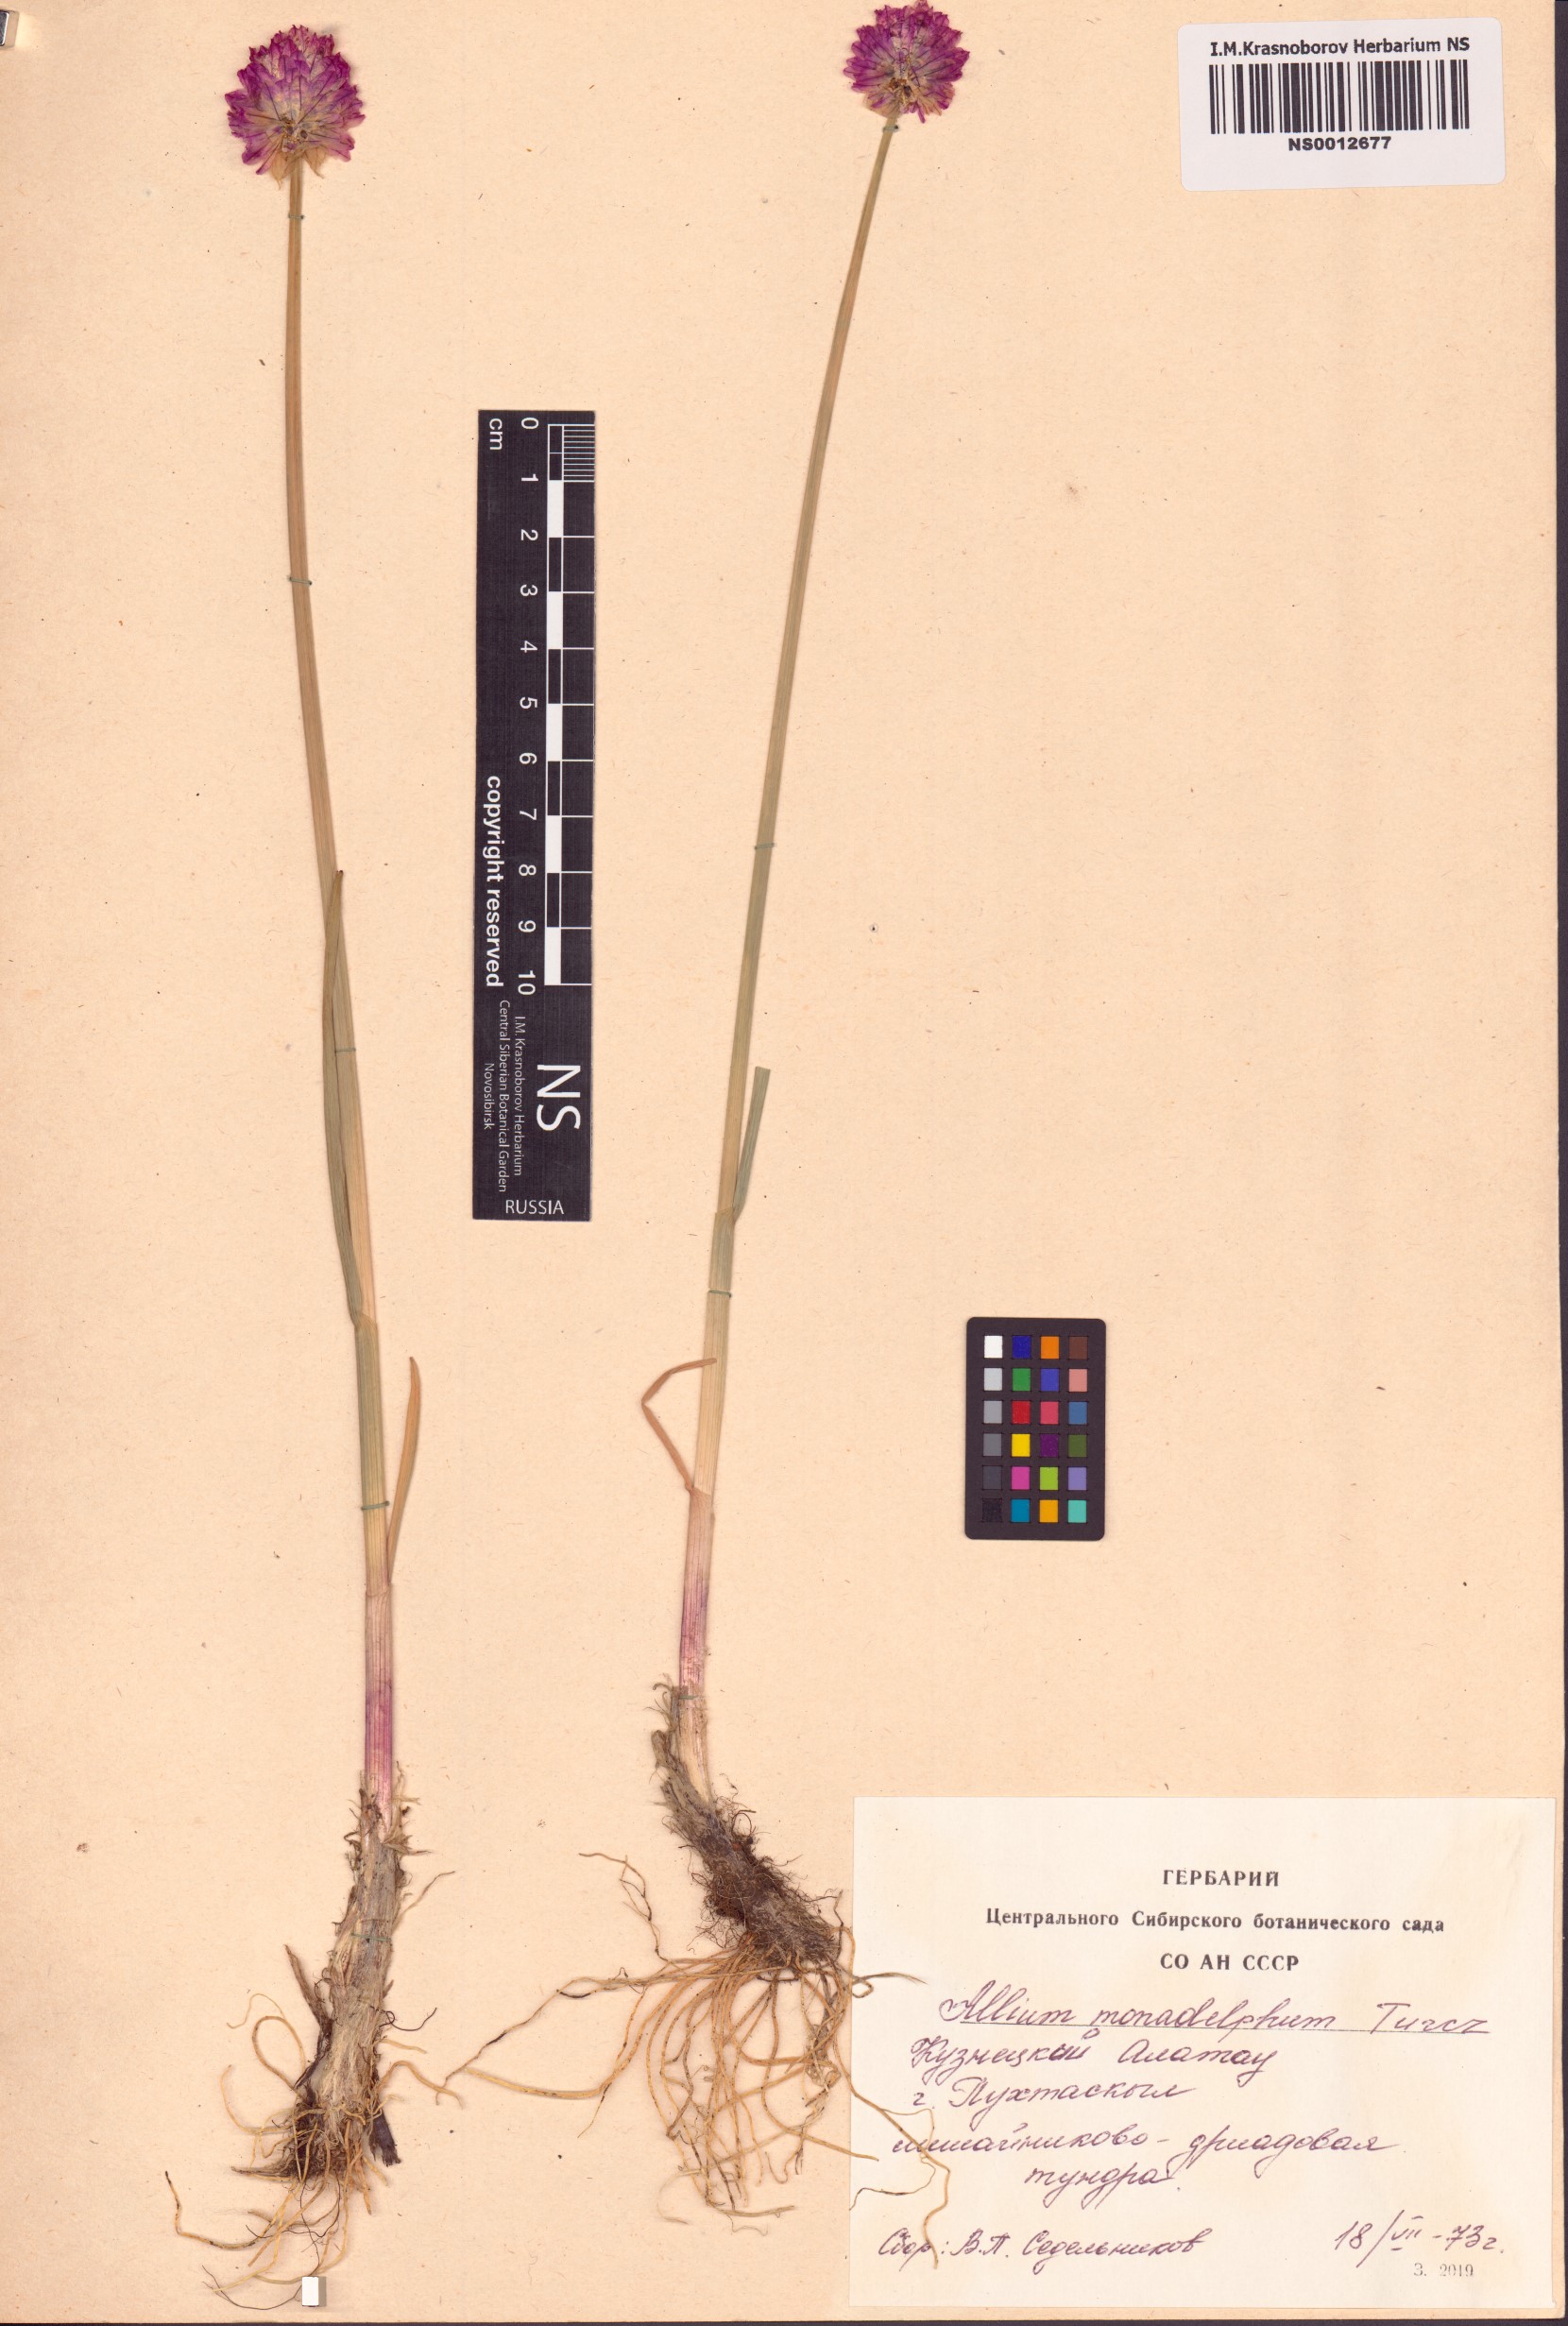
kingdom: Plantae
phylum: Tracheophyta
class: Liliopsida
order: Asparagales
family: Amaryllidaceae
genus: Allium
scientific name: Allium atrosanguineum
